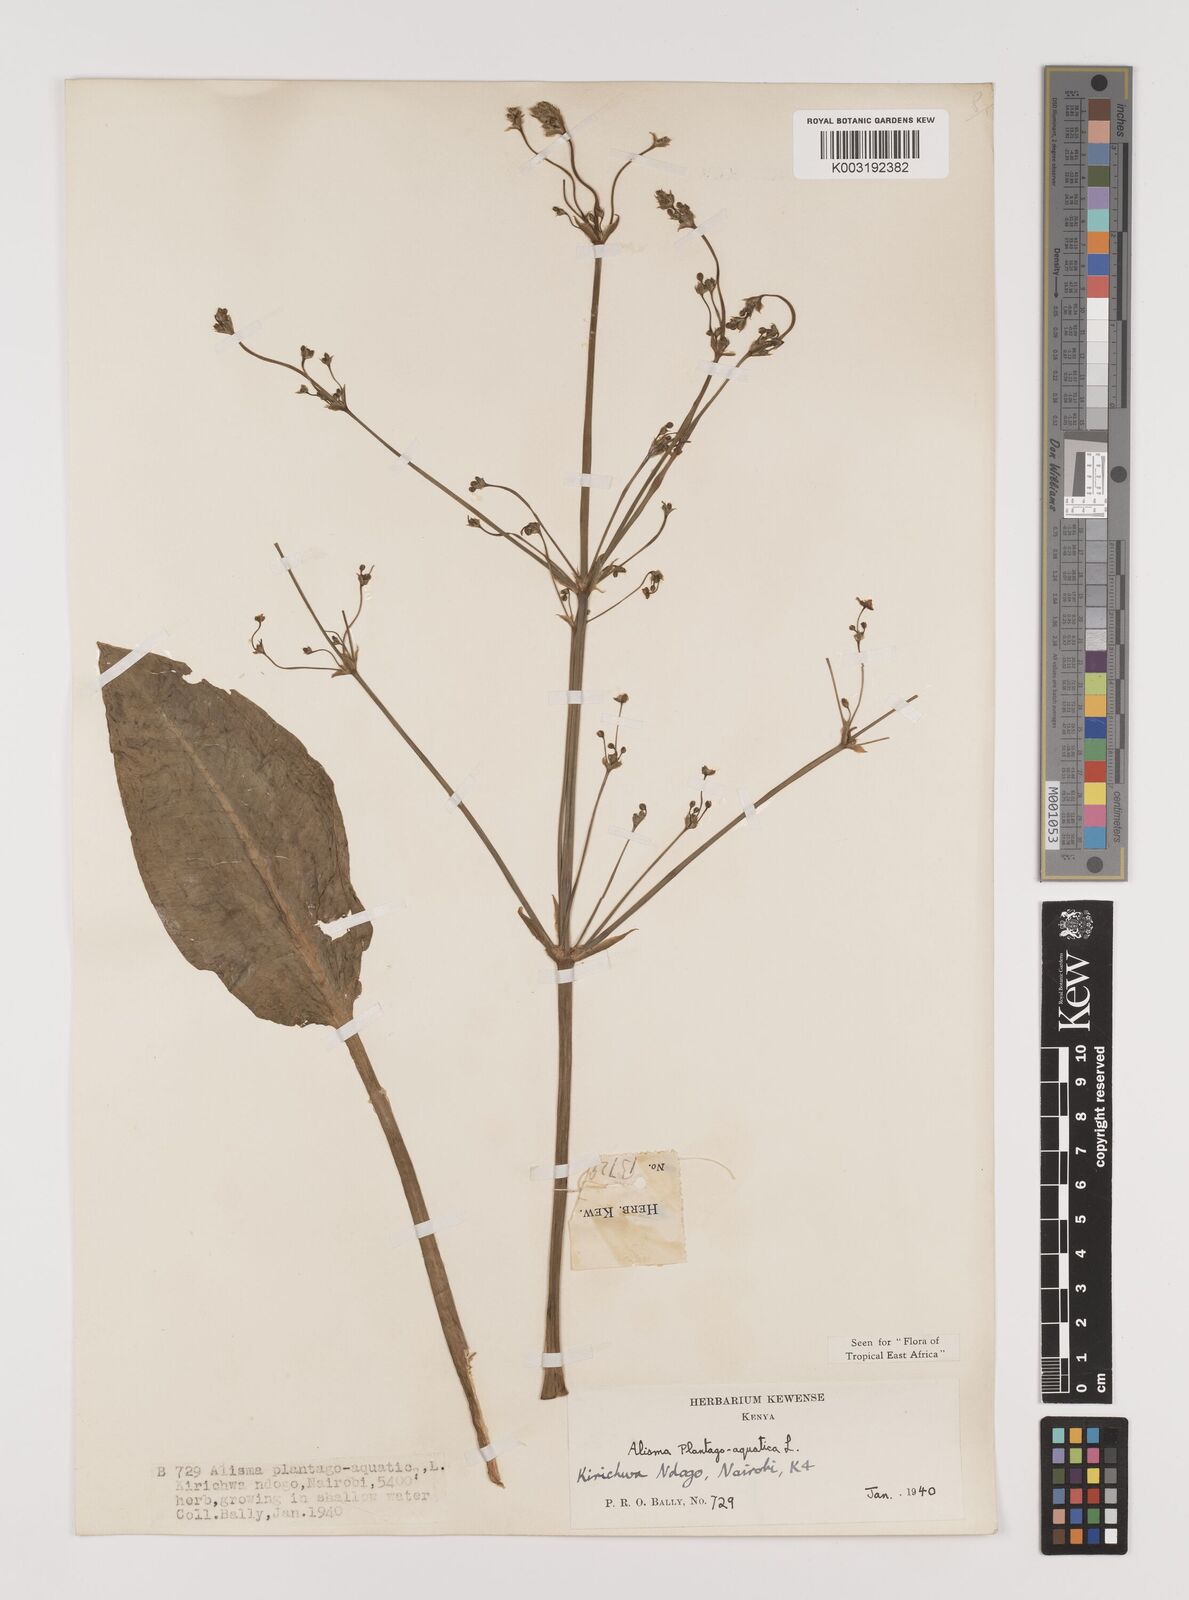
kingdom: Plantae
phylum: Tracheophyta
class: Liliopsida
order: Alismatales
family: Alismataceae
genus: Alisma
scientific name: Alisma plantago-aquatica
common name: Water-plantain
